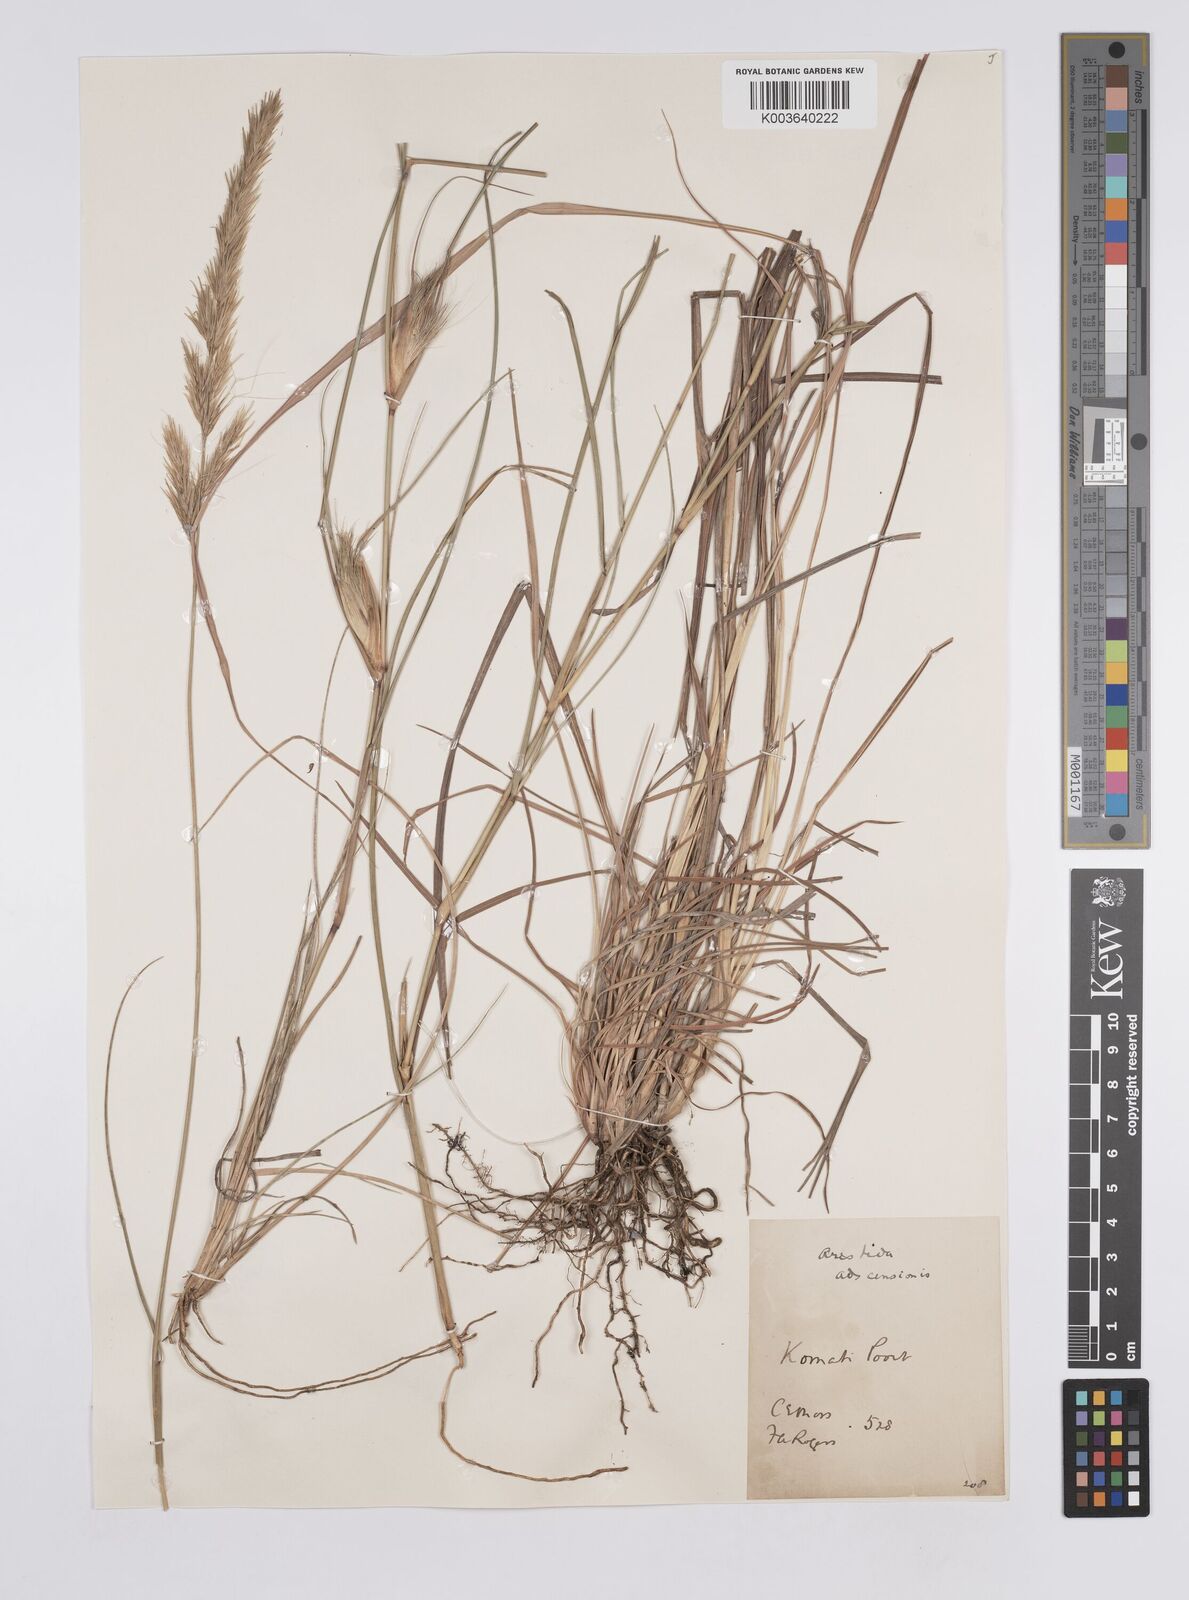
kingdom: Plantae
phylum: Tracheophyta
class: Liliopsida
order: Poales
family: Poaceae
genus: Aristida
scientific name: Aristida congesta
